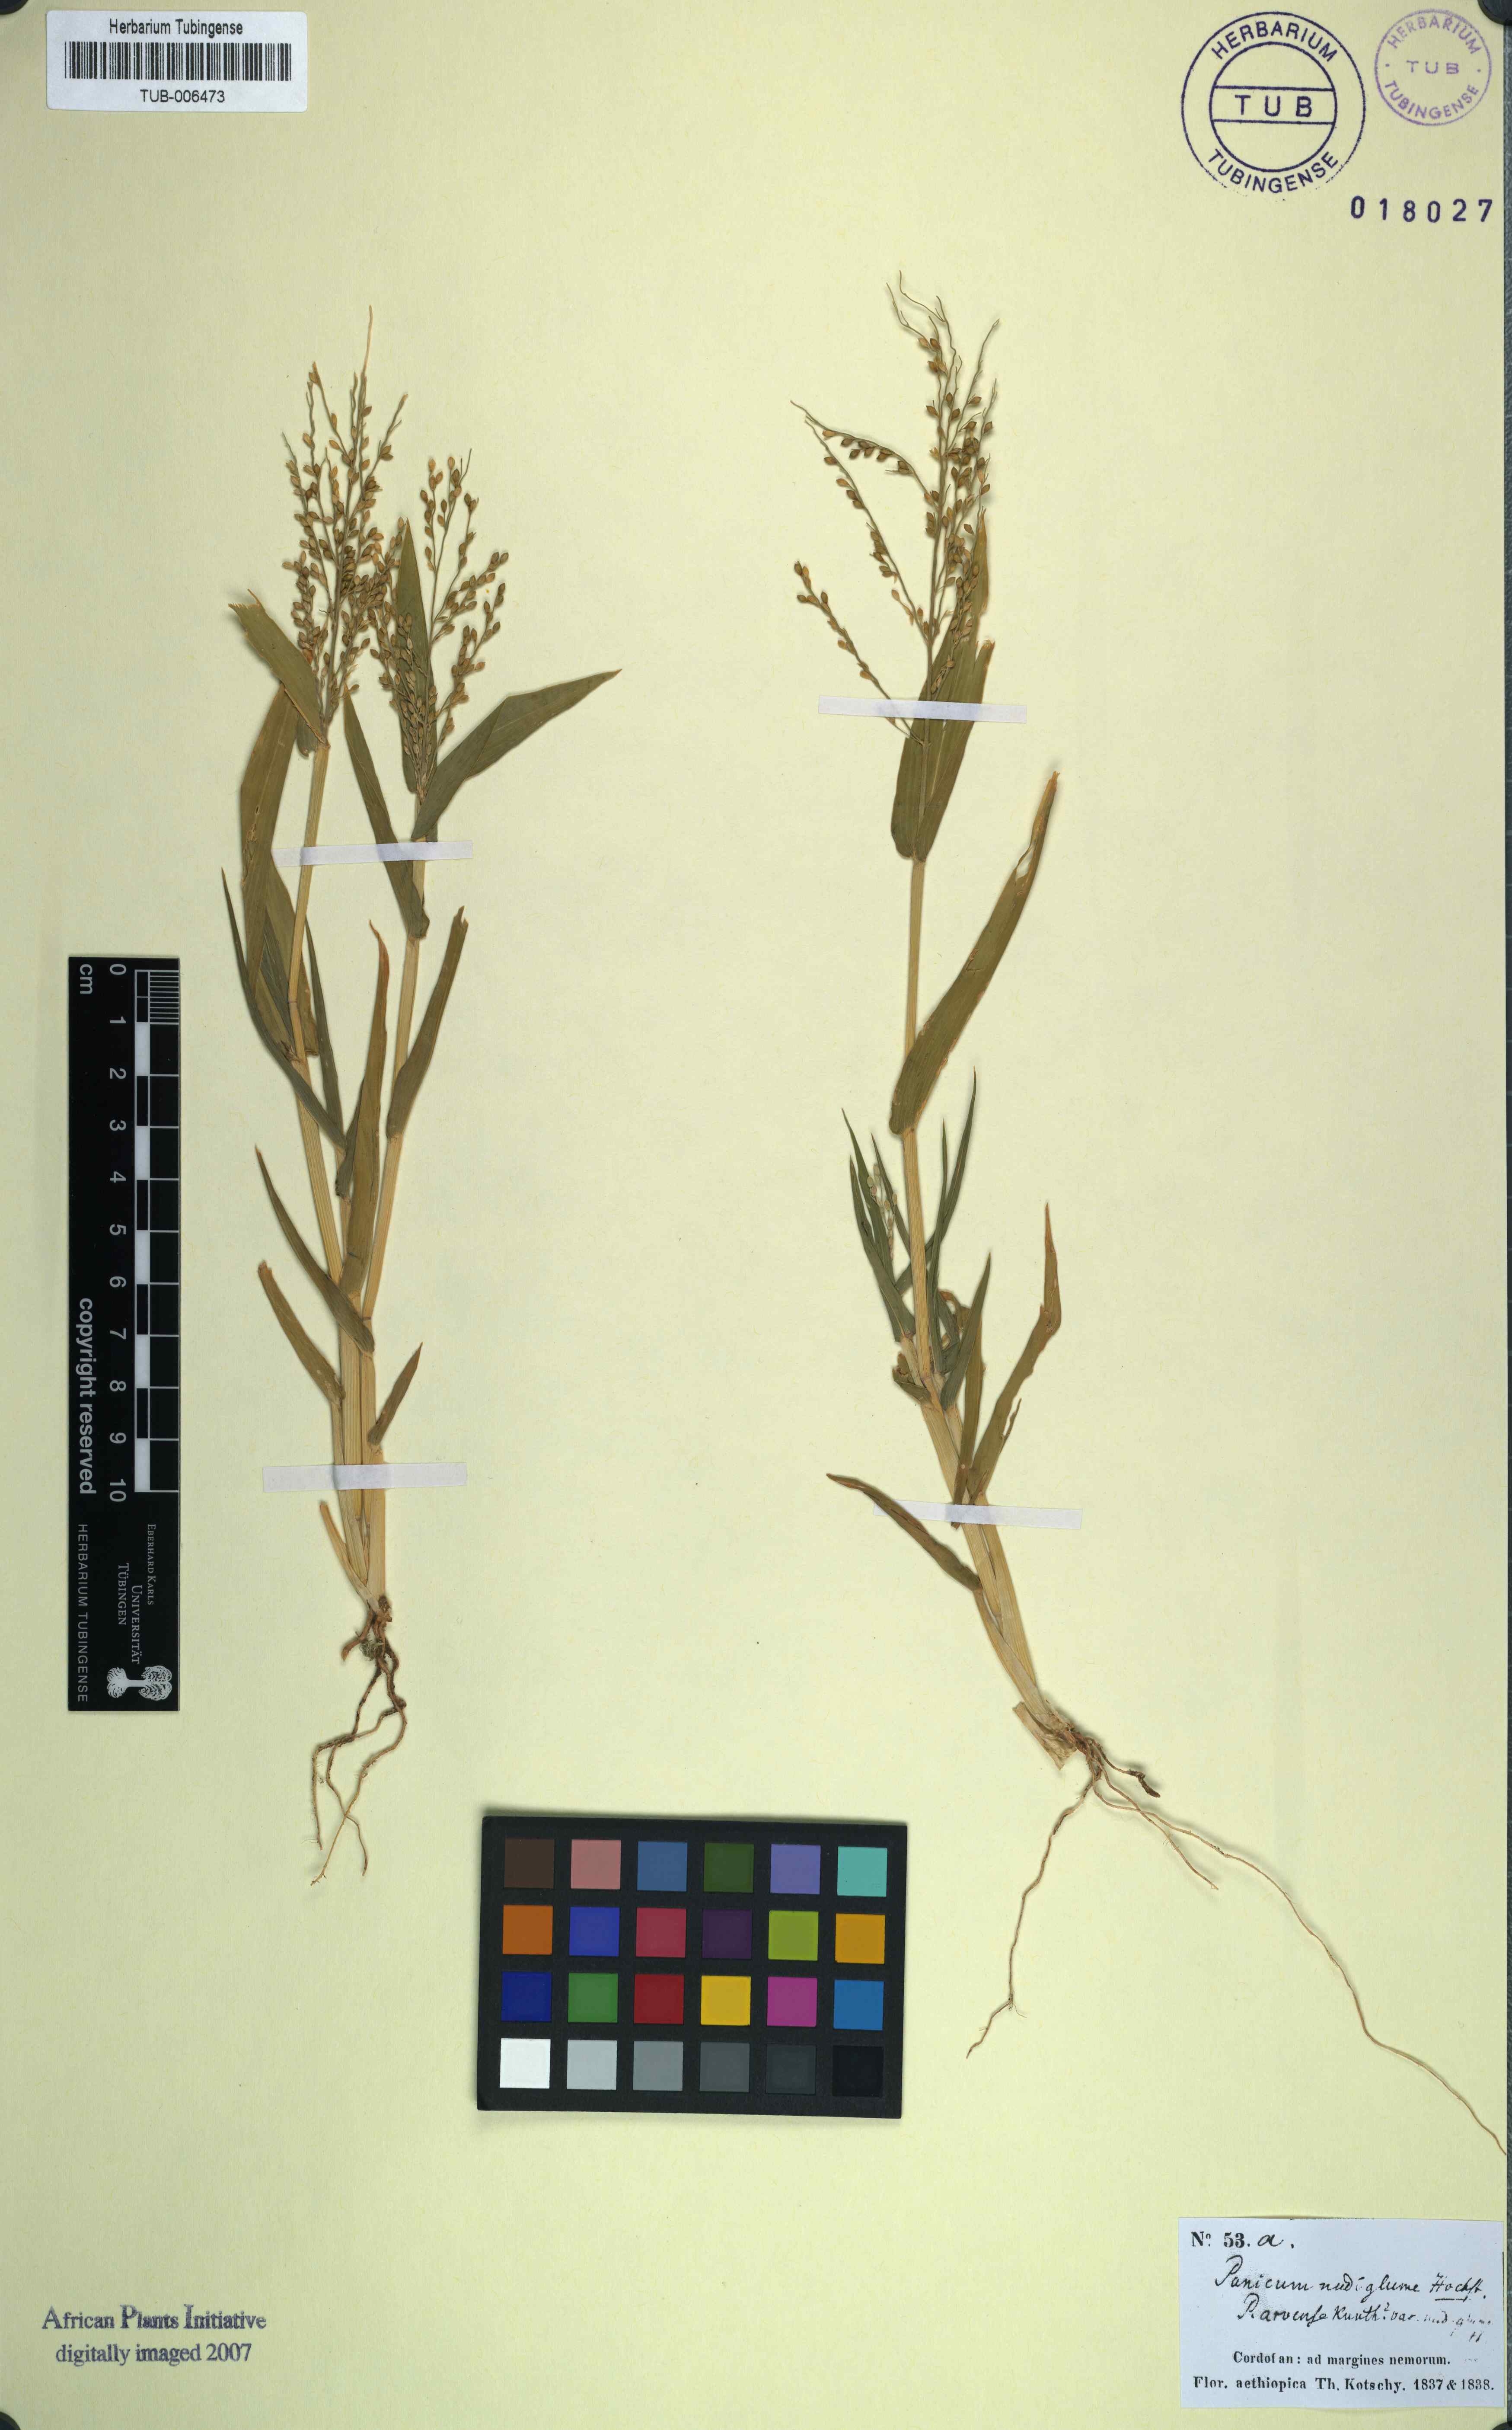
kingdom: Plantae
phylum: Tracheophyta
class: Liliopsida
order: Poales
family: Poaceae
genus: Urochloa
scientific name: Urochloa ramosa
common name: Browntop millet
